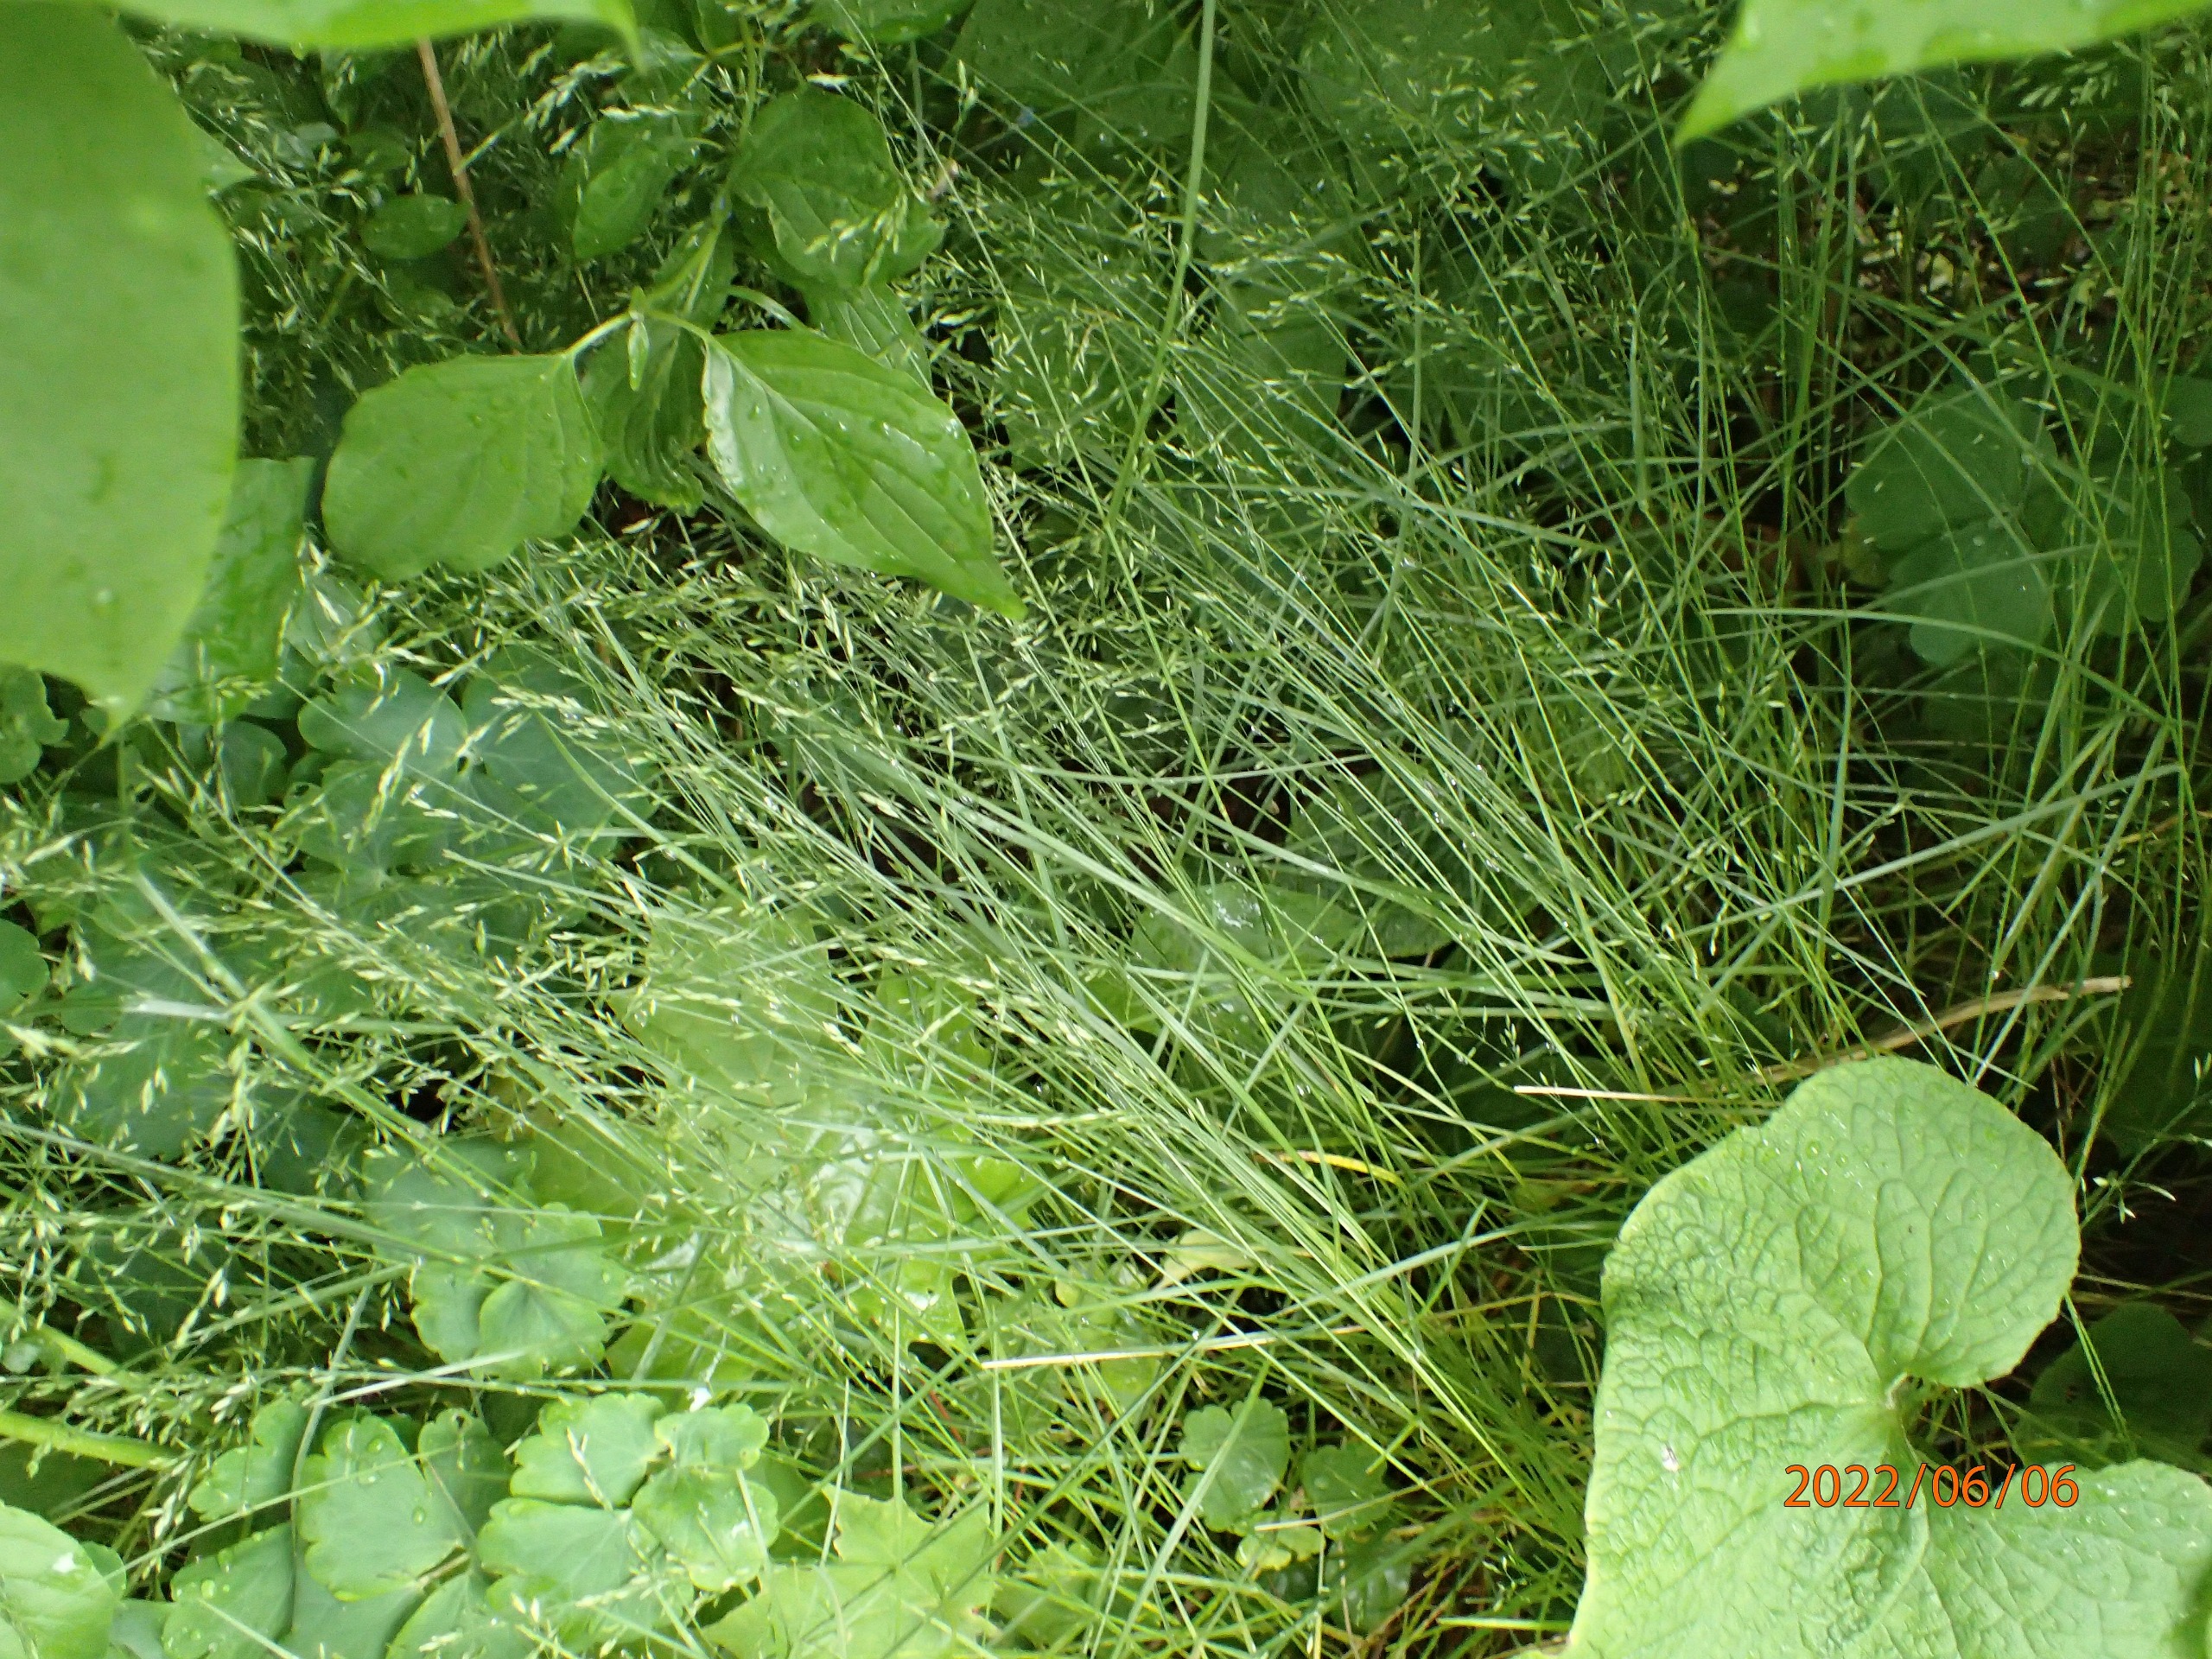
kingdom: Plantae
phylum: Tracheophyta
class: Liliopsida
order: Poales
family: Poaceae
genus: Poa
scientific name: Poa nemoralis
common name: Lund-rapgræs
